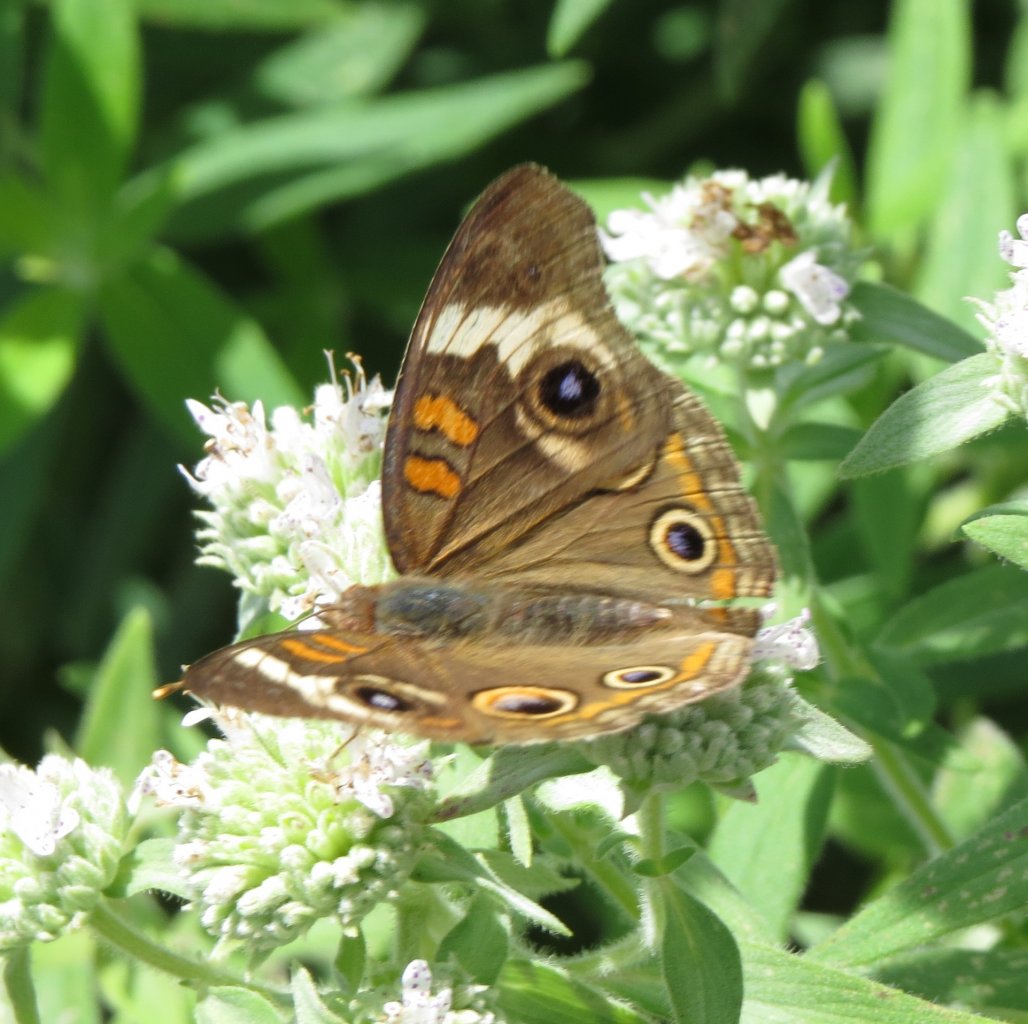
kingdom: Animalia
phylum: Arthropoda
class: Insecta
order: Lepidoptera
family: Nymphalidae
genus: Junonia
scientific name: Junonia coenia
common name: Common Buckeye
